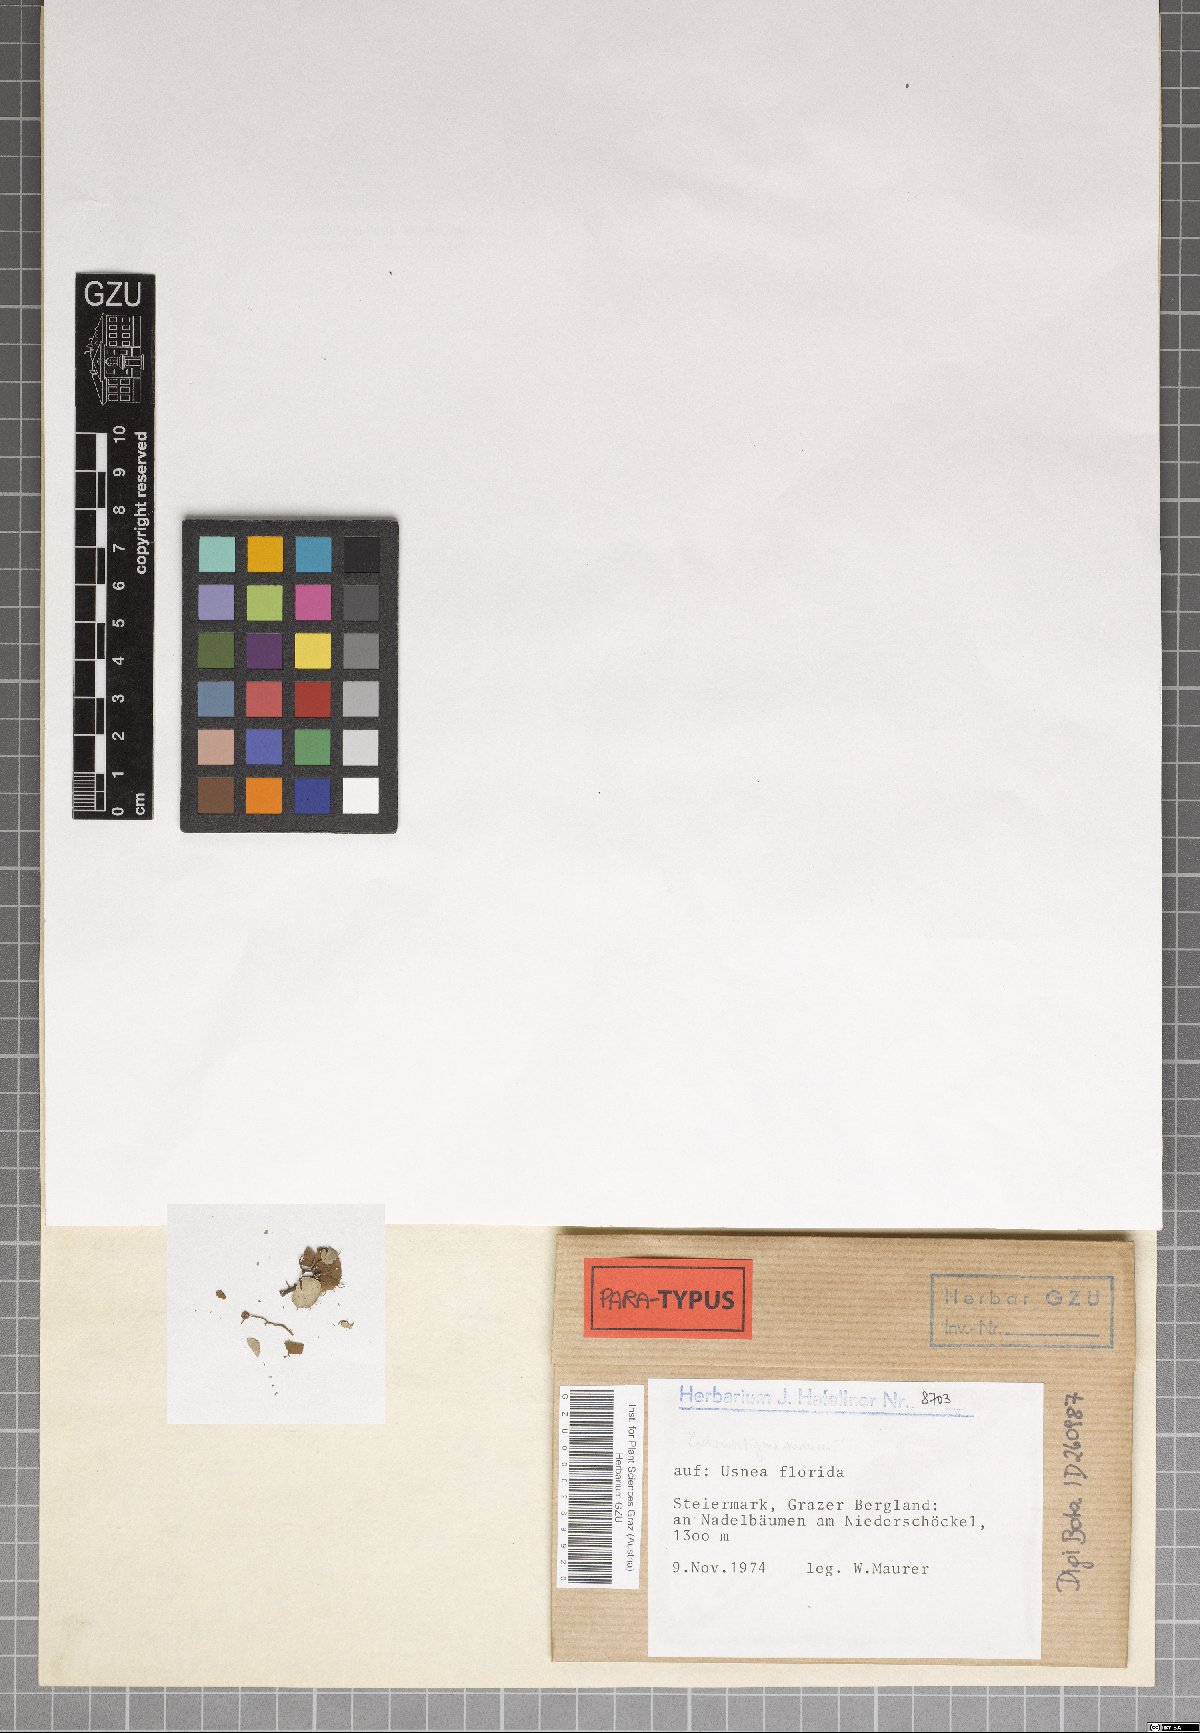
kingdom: Fungi
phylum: Ascomycota
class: Arthoniomycetes
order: Lichenostigmatales
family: Phaeococcomycetaceae
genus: Lichenostigma
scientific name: Lichenostigma maureri
